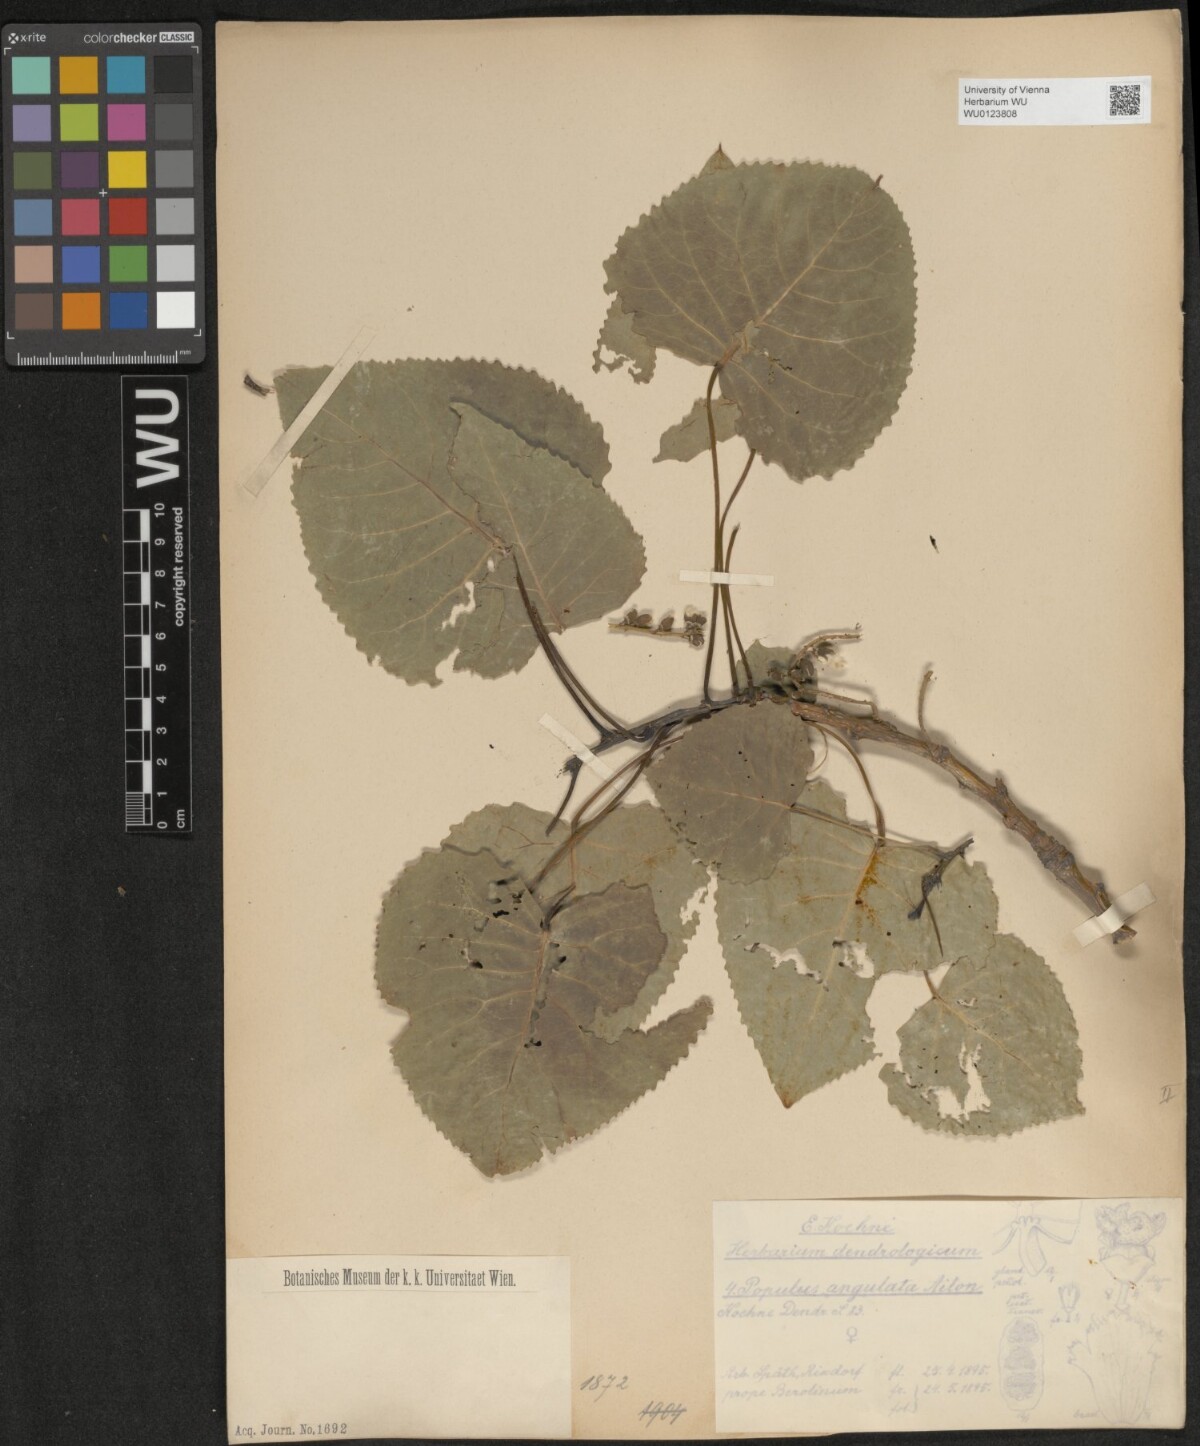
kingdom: Plantae
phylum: Tracheophyta
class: Magnoliopsida
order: Malpighiales
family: Salicaceae
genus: Populus
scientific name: Populus deltoides
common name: Eastern cottonwood
